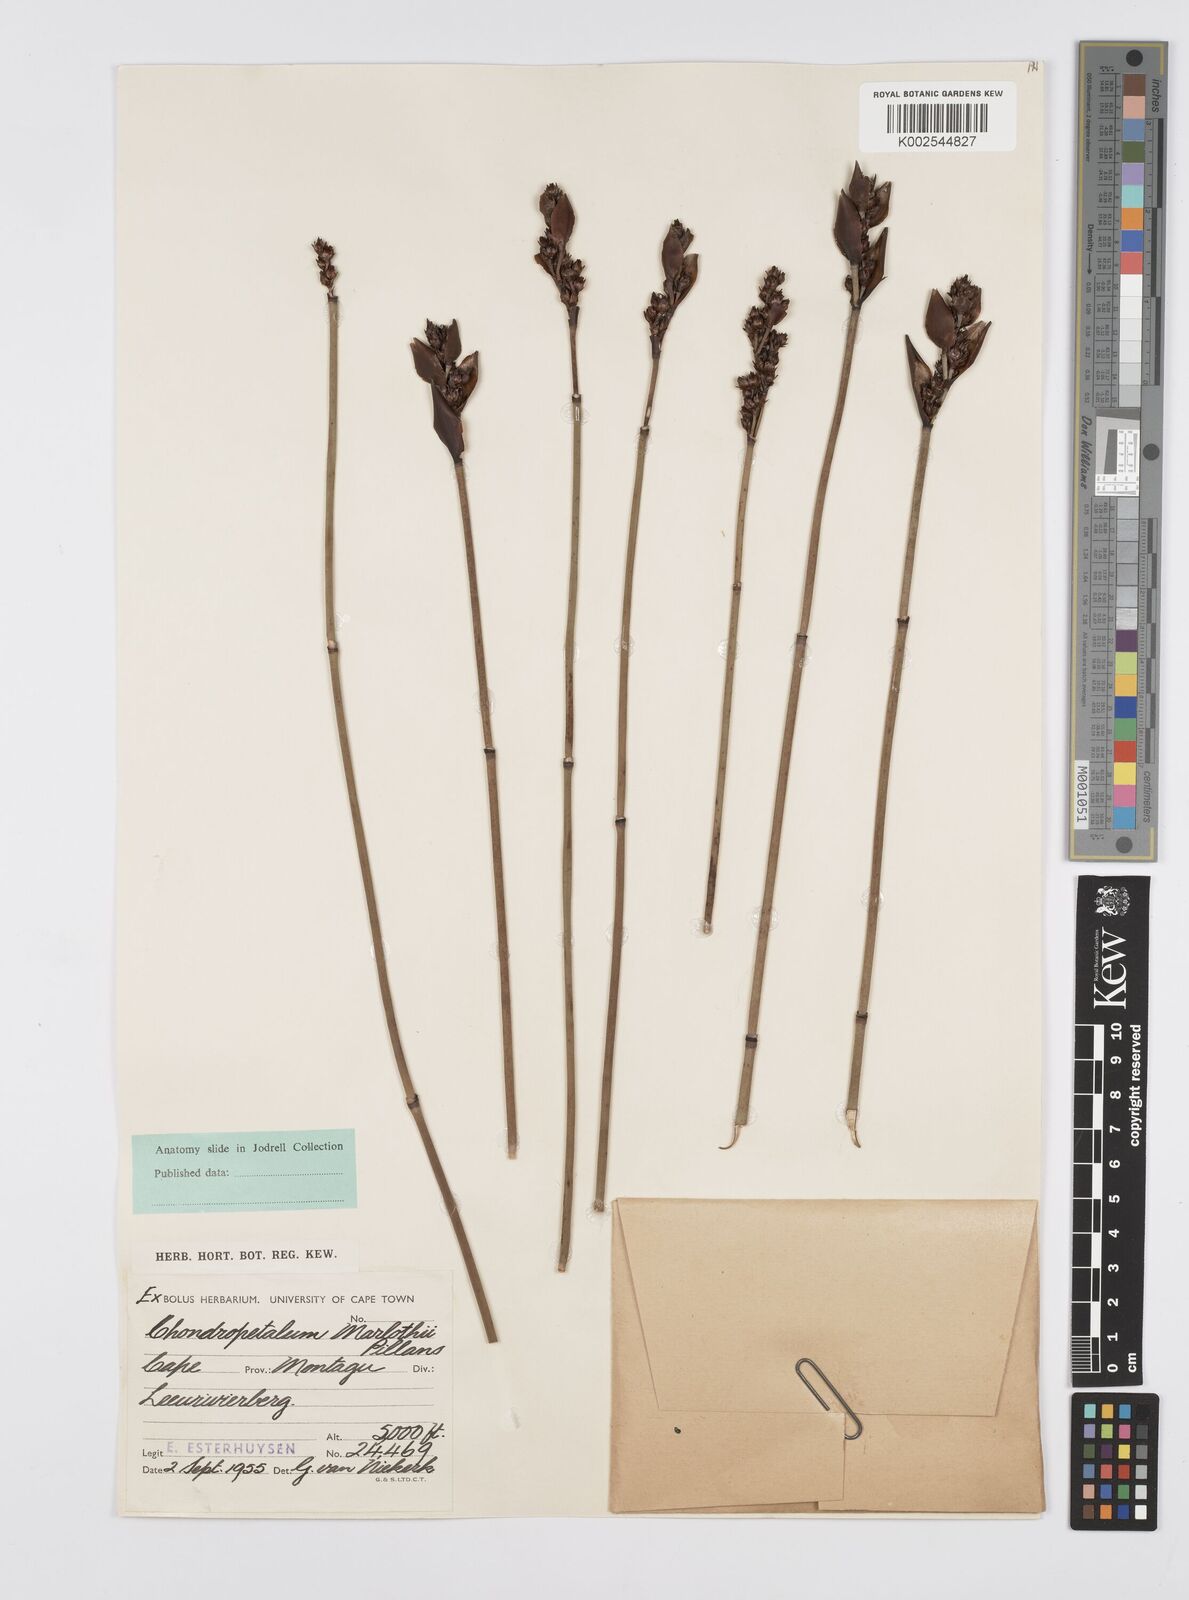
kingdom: Plantae
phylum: Tracheophyta
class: Liliopsida
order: Poales
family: Restionaceae
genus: Elegia
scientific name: Elegia marlothii
